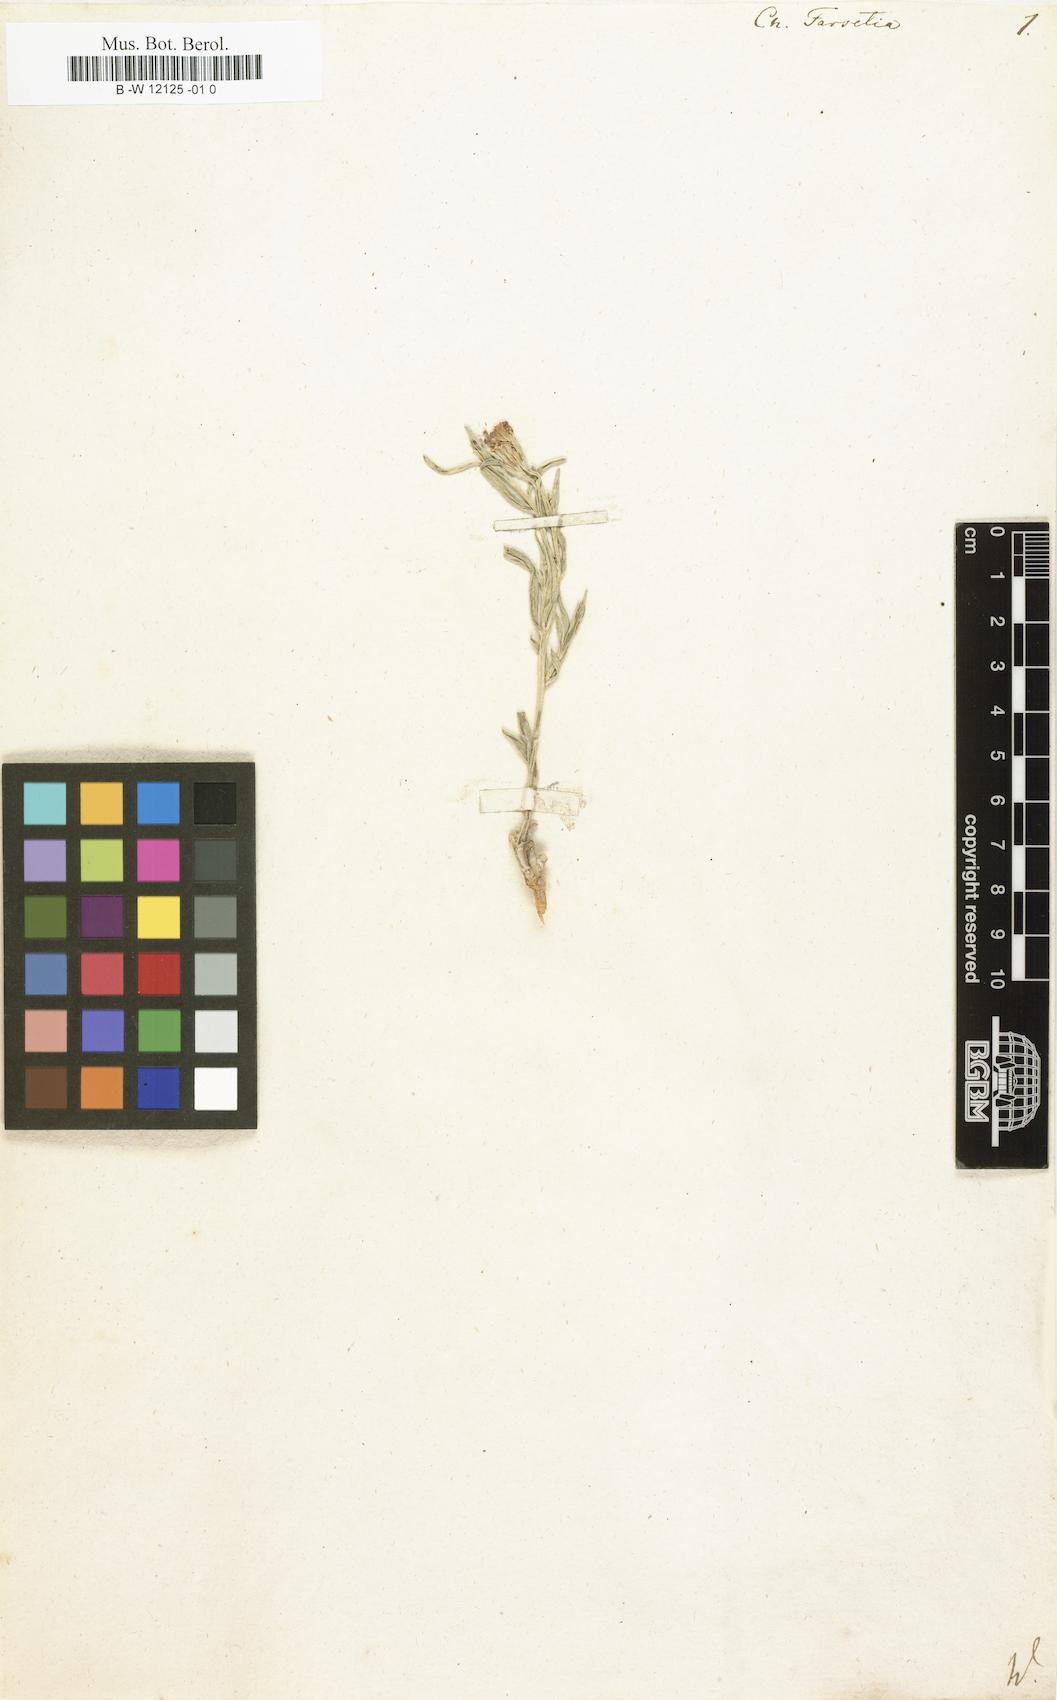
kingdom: Plantae
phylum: Tracheophyta
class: Magnoliopsida
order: Brassicales
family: Brassicaceae
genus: Farsetia
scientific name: Farsetia aegyptia
